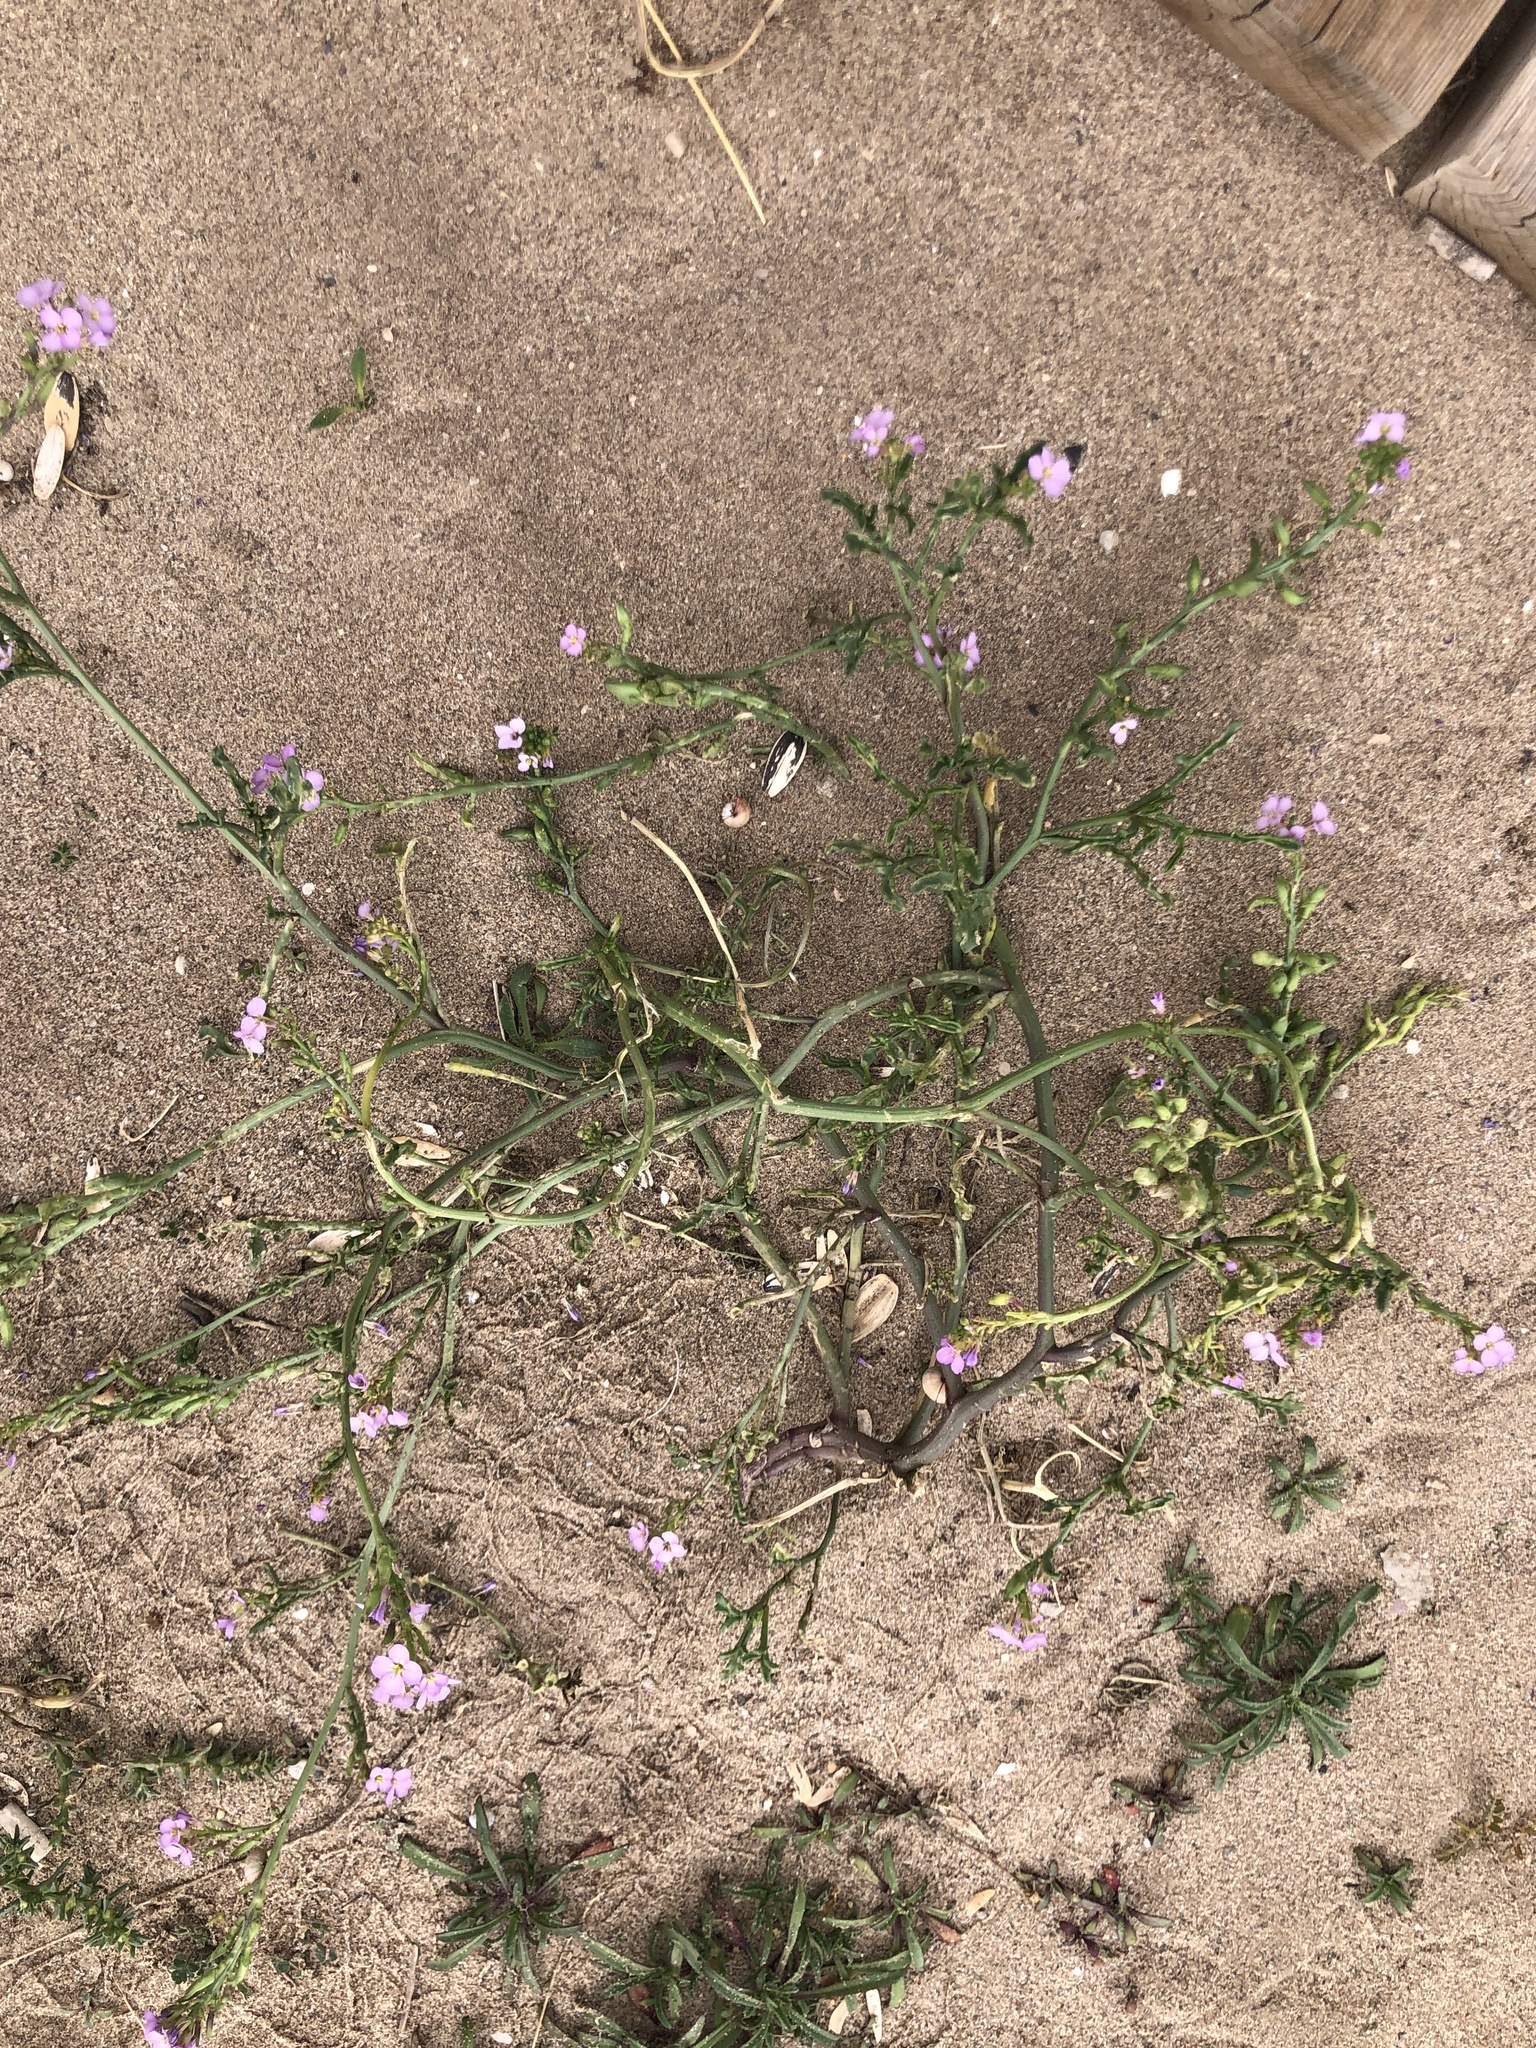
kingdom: Plantae
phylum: Tracheophyta
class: Magnoliopsida
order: Brassicales
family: Brassicaceae
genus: Cakile
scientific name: Cakile maritima
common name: Sea rocket
